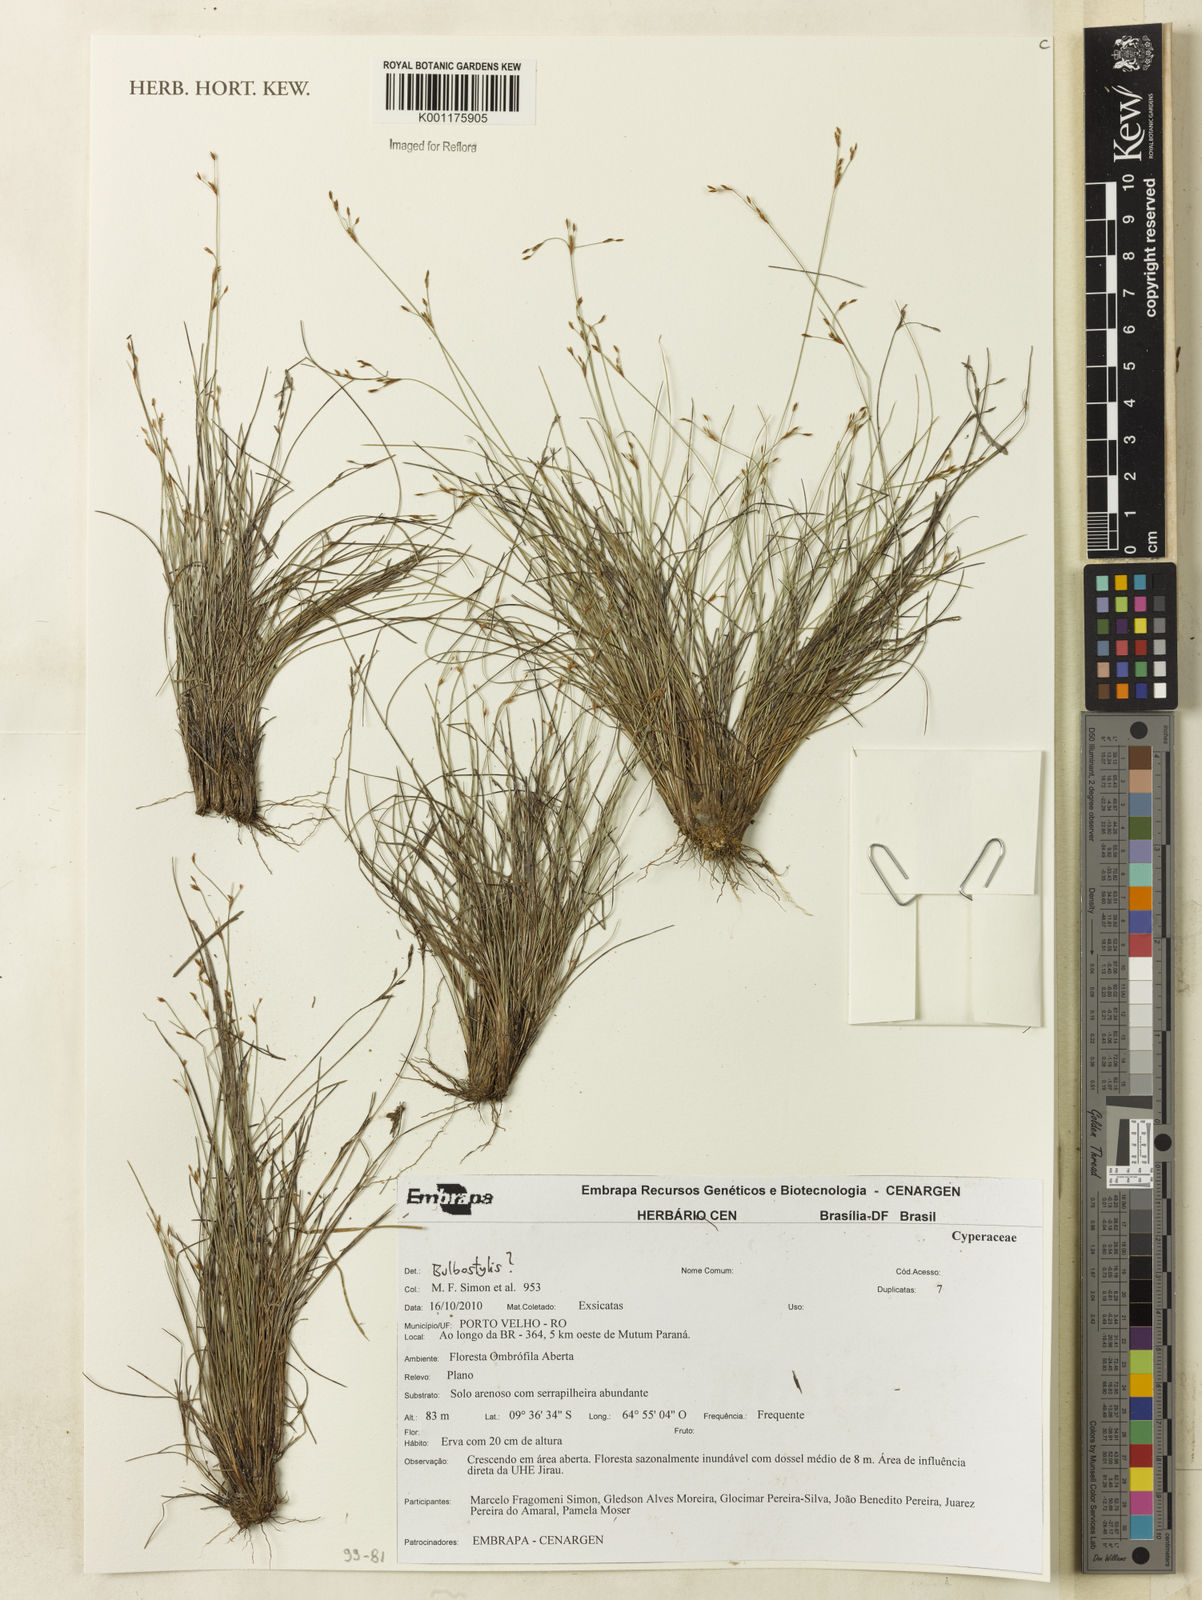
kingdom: Plantae
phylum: Tracheophyta
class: Liliopsida
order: Poales
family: Cyperaceae
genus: Bulbostylis
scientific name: Bulbostylis
